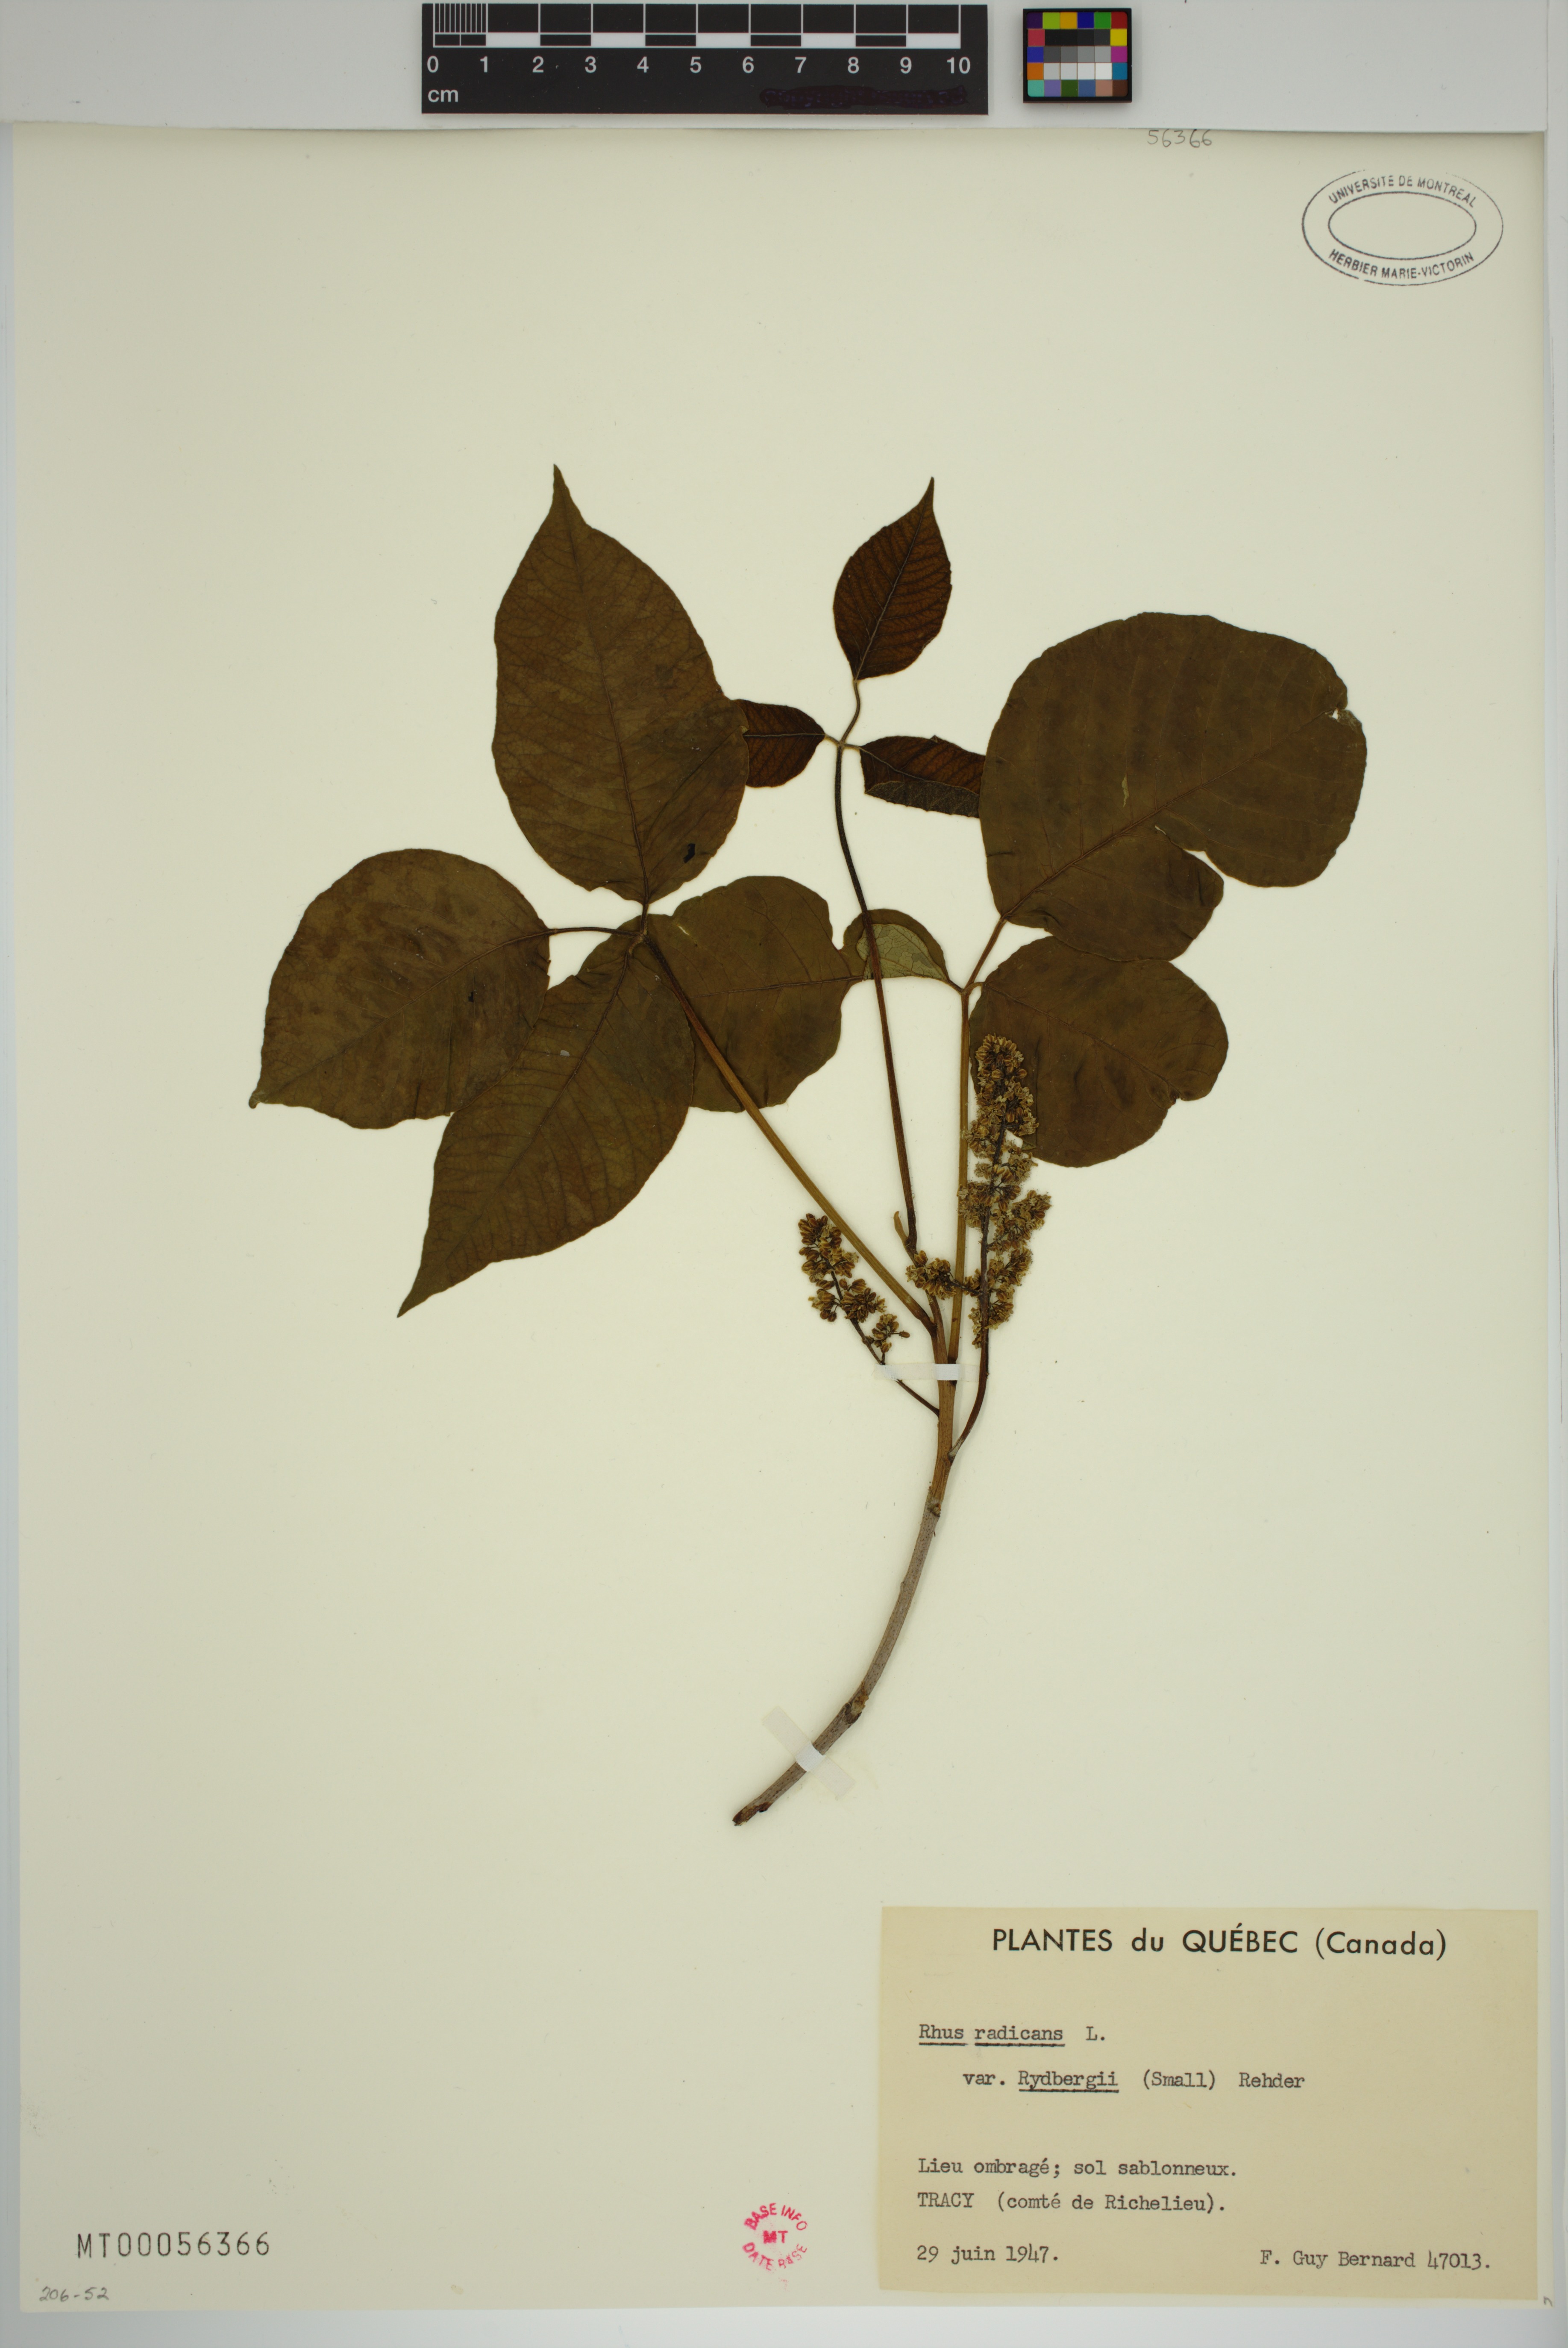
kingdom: Plantae
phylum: Tracheophyta
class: Magnoliopsida
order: Sapindales
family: Anacardiaceae
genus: Toxicodendron
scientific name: Toxicodendron rydbergii
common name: Rydberg's poison-ivy
